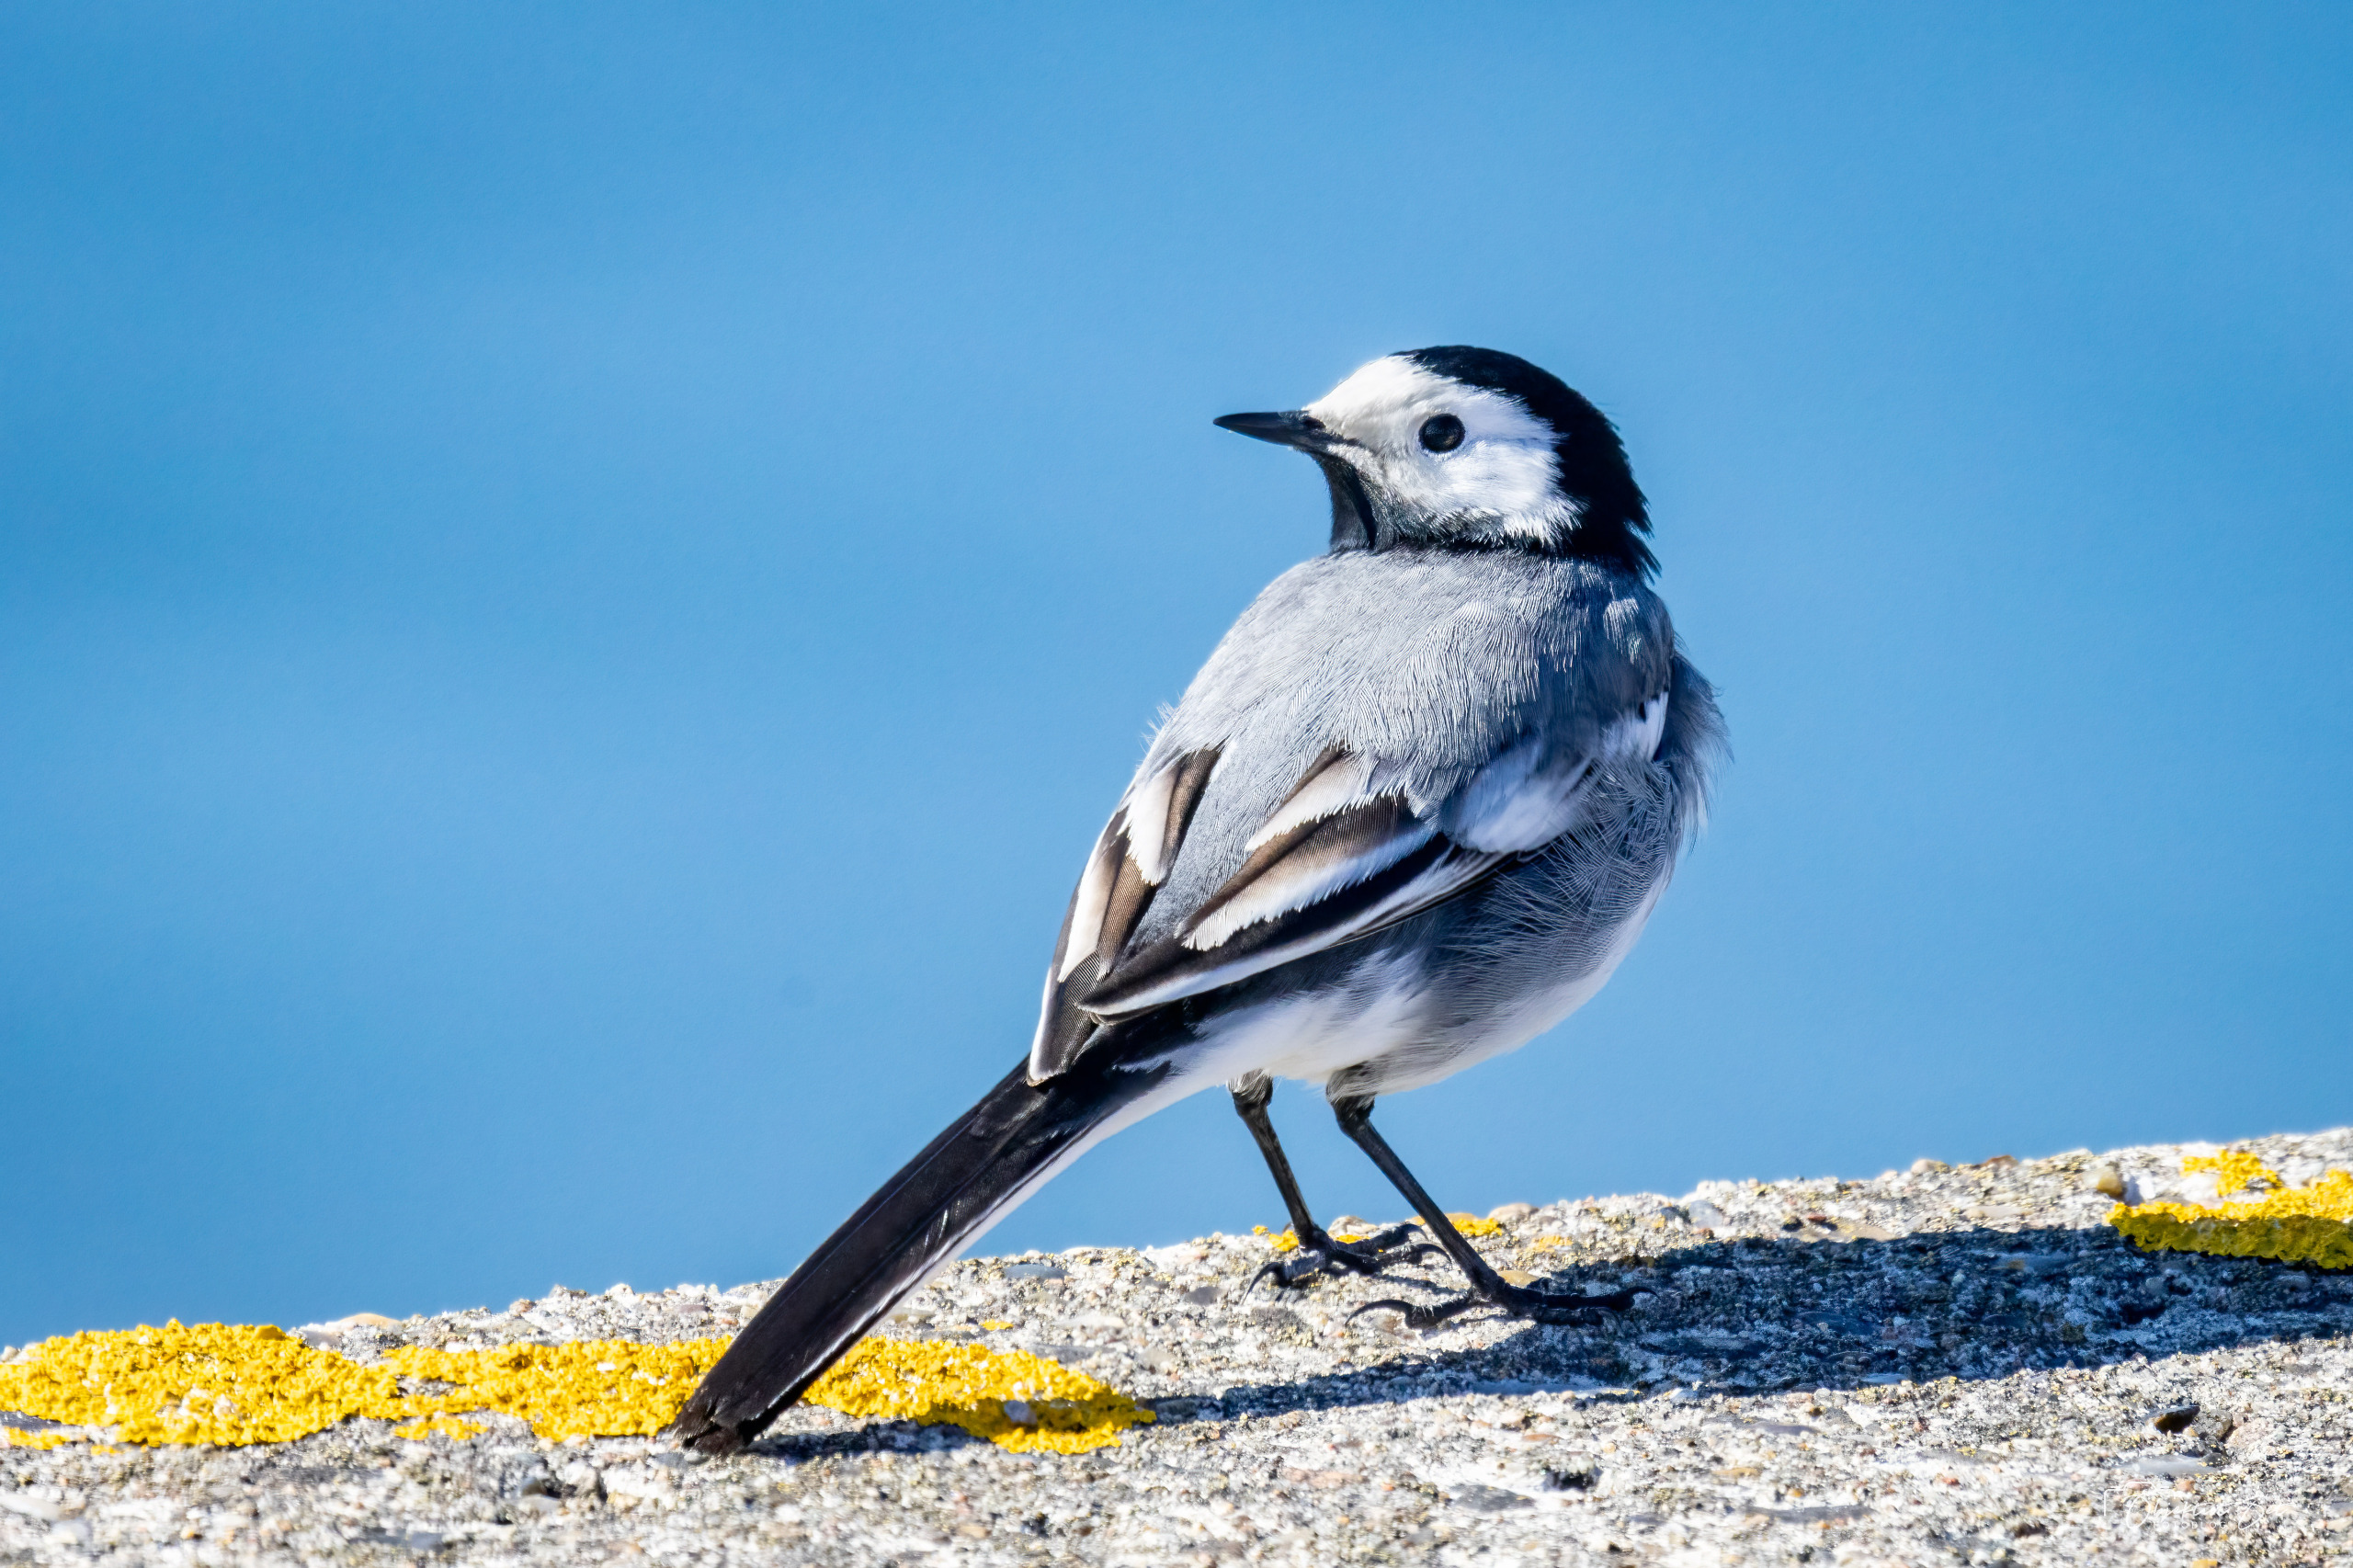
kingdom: Animalia
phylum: Chordata
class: Aves
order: Passeriformes
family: Motacillidae
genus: Motacilla
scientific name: Motacilla alba
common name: Hvid vipstjert
